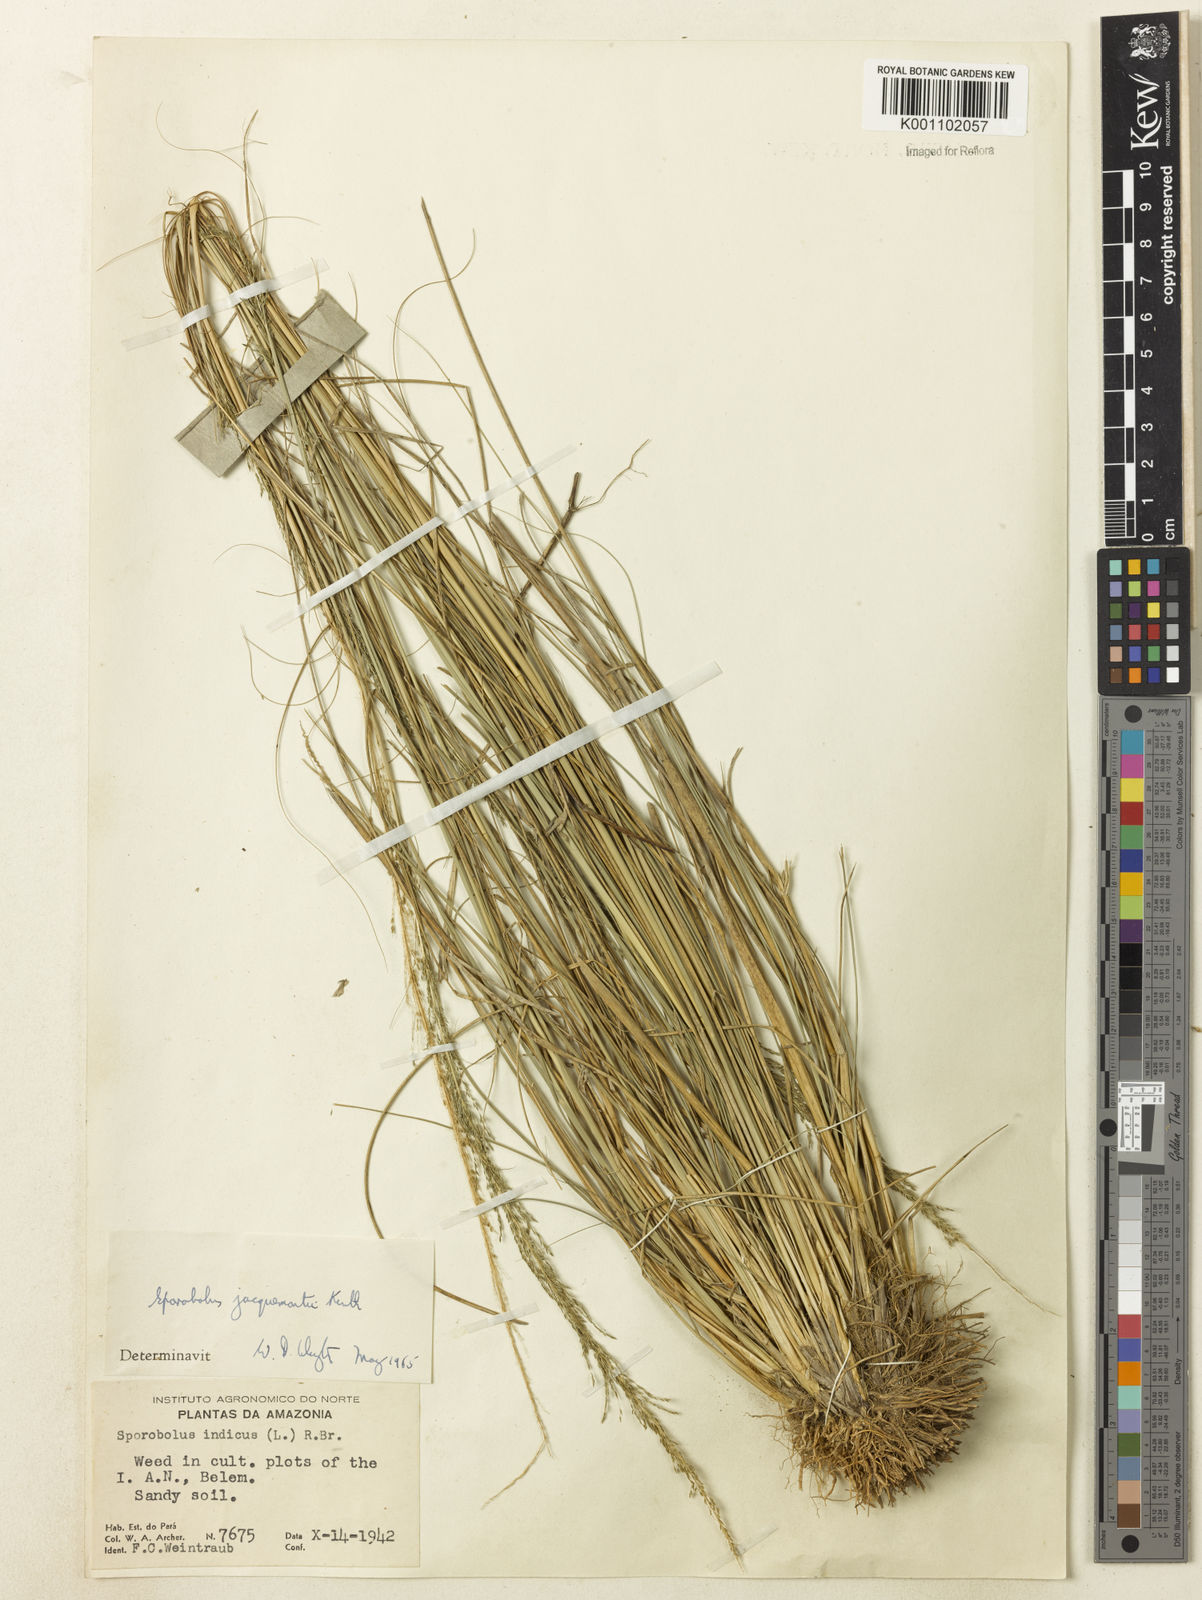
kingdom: Plantae
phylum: Tracheophyta
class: Liliopsida
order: Poales
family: Poaceae
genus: Sporobolus
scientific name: Sporobolus pyramidalis
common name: West indian dropseed
